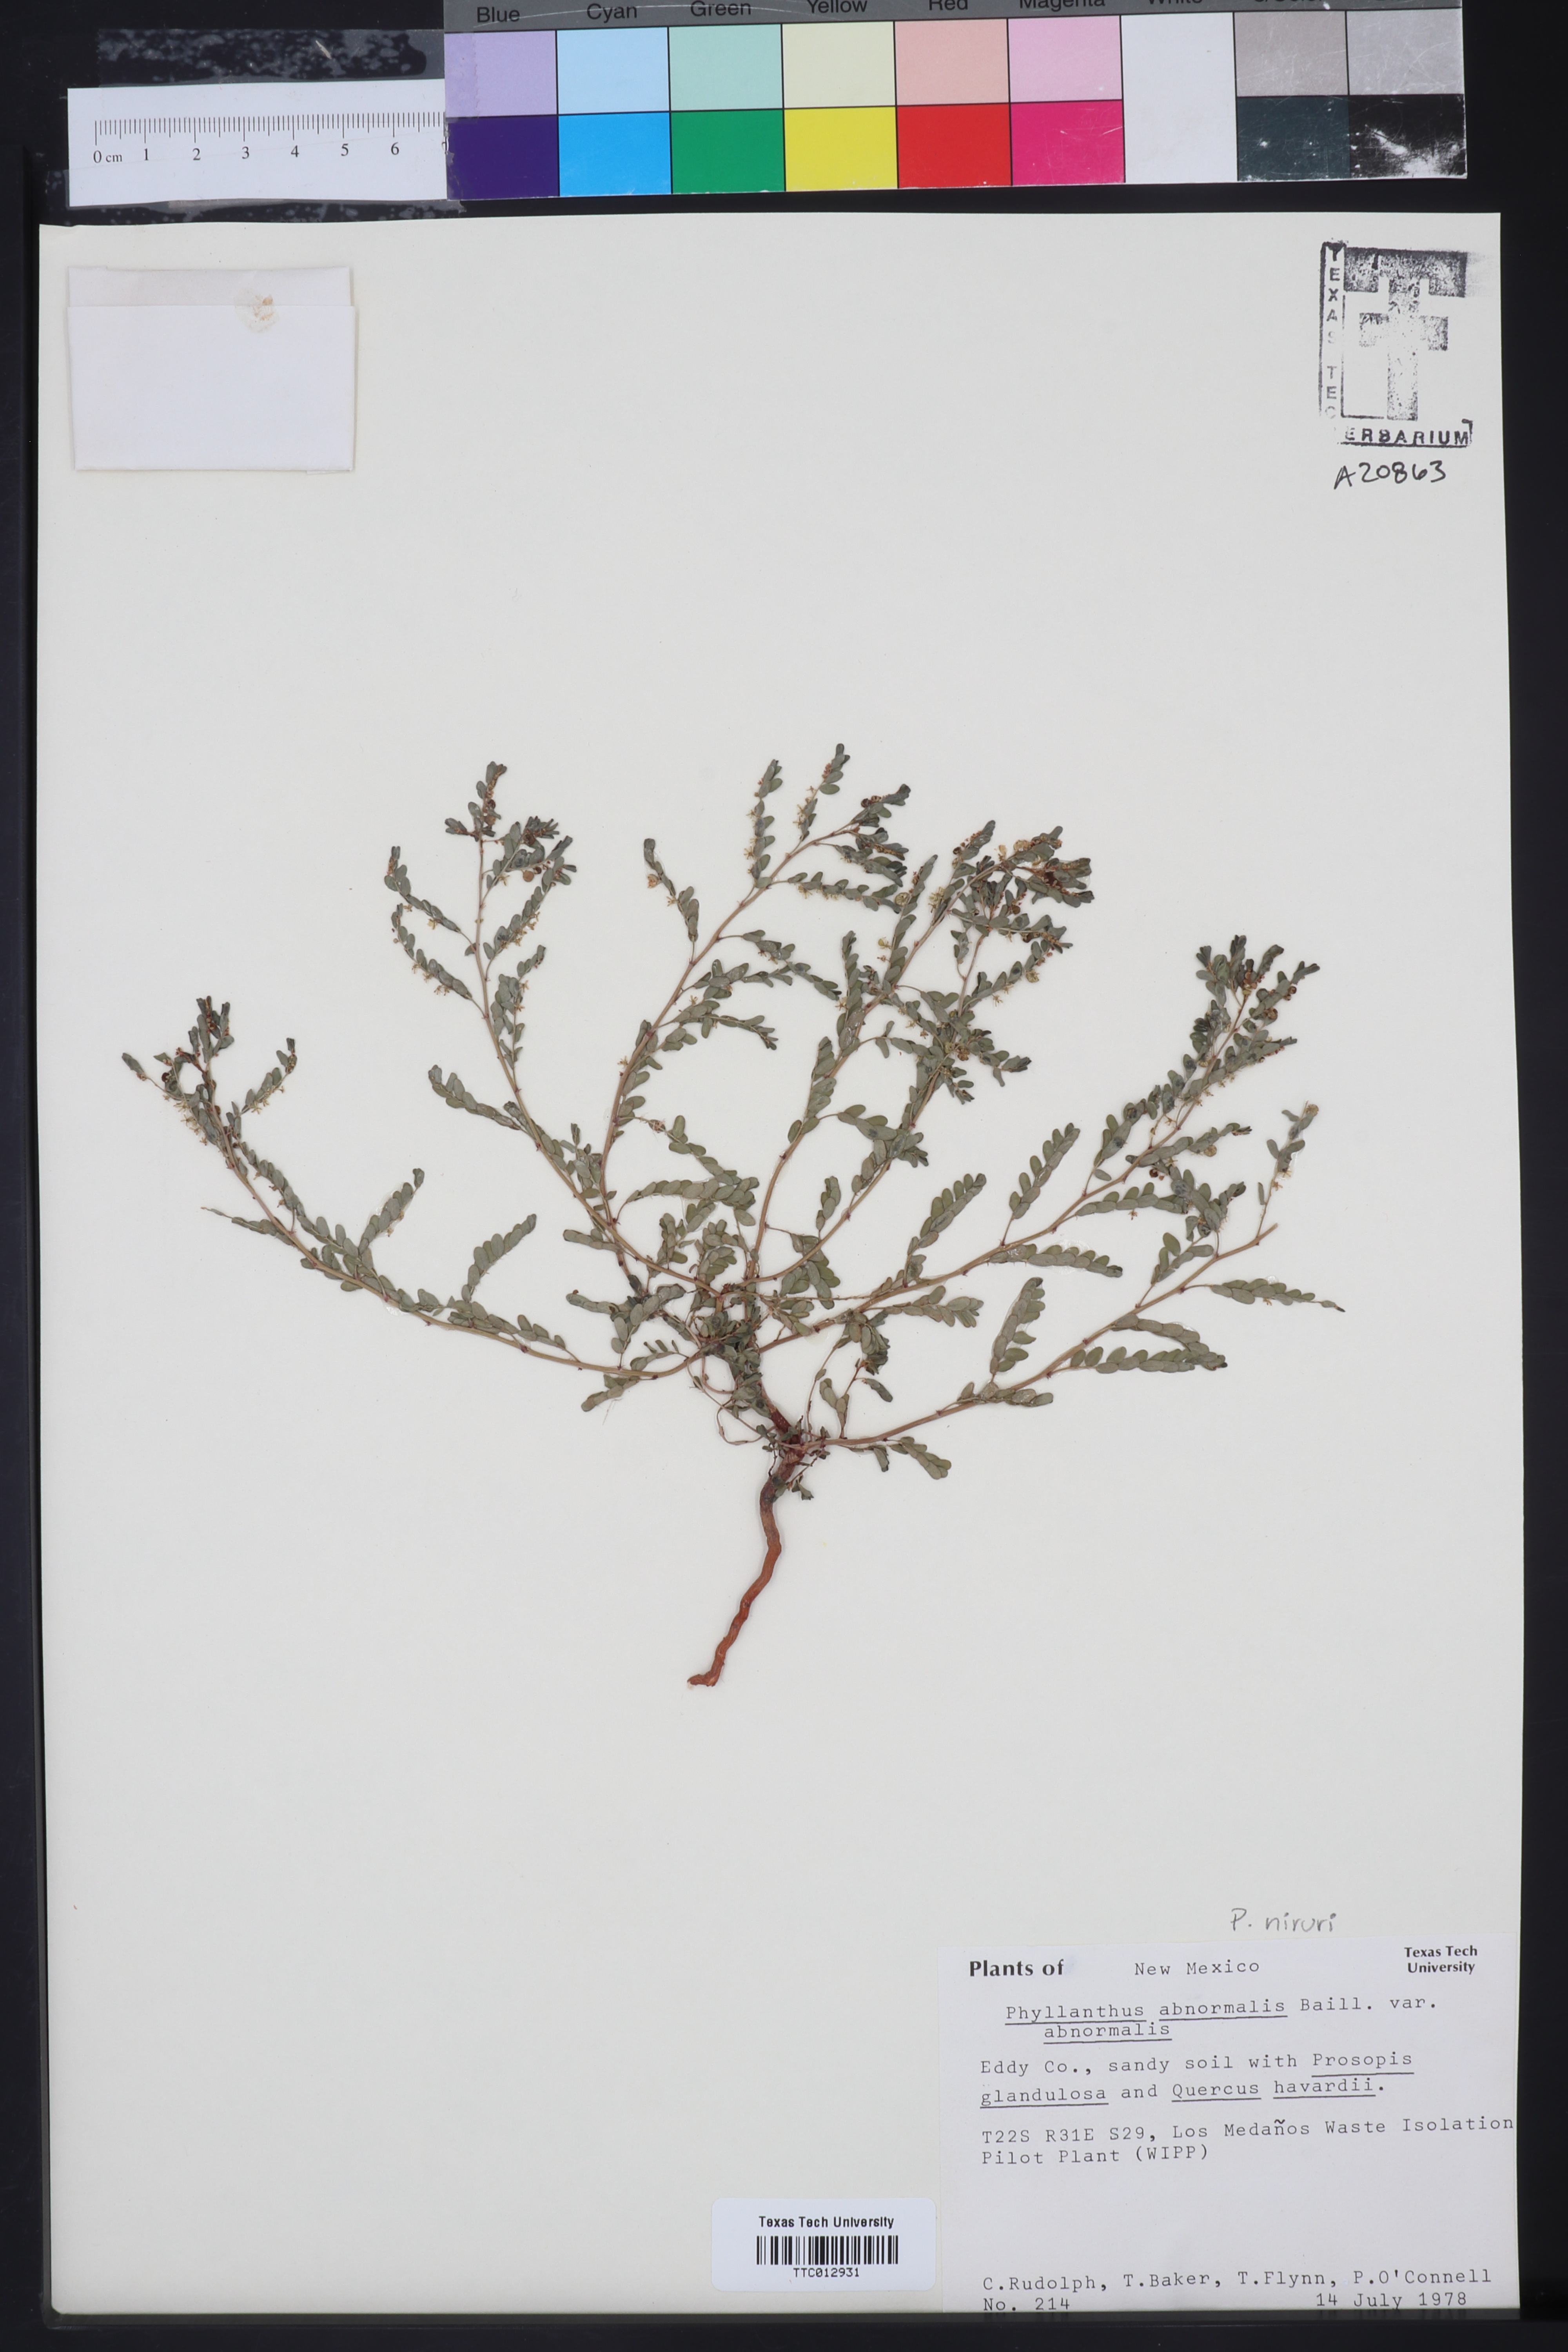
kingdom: Plantae
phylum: Tracheophyta
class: Magnoliopsida
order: Malpighiales
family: Phyllanthaceae
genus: Phyllanthus
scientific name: Phyllanthus abnormis
